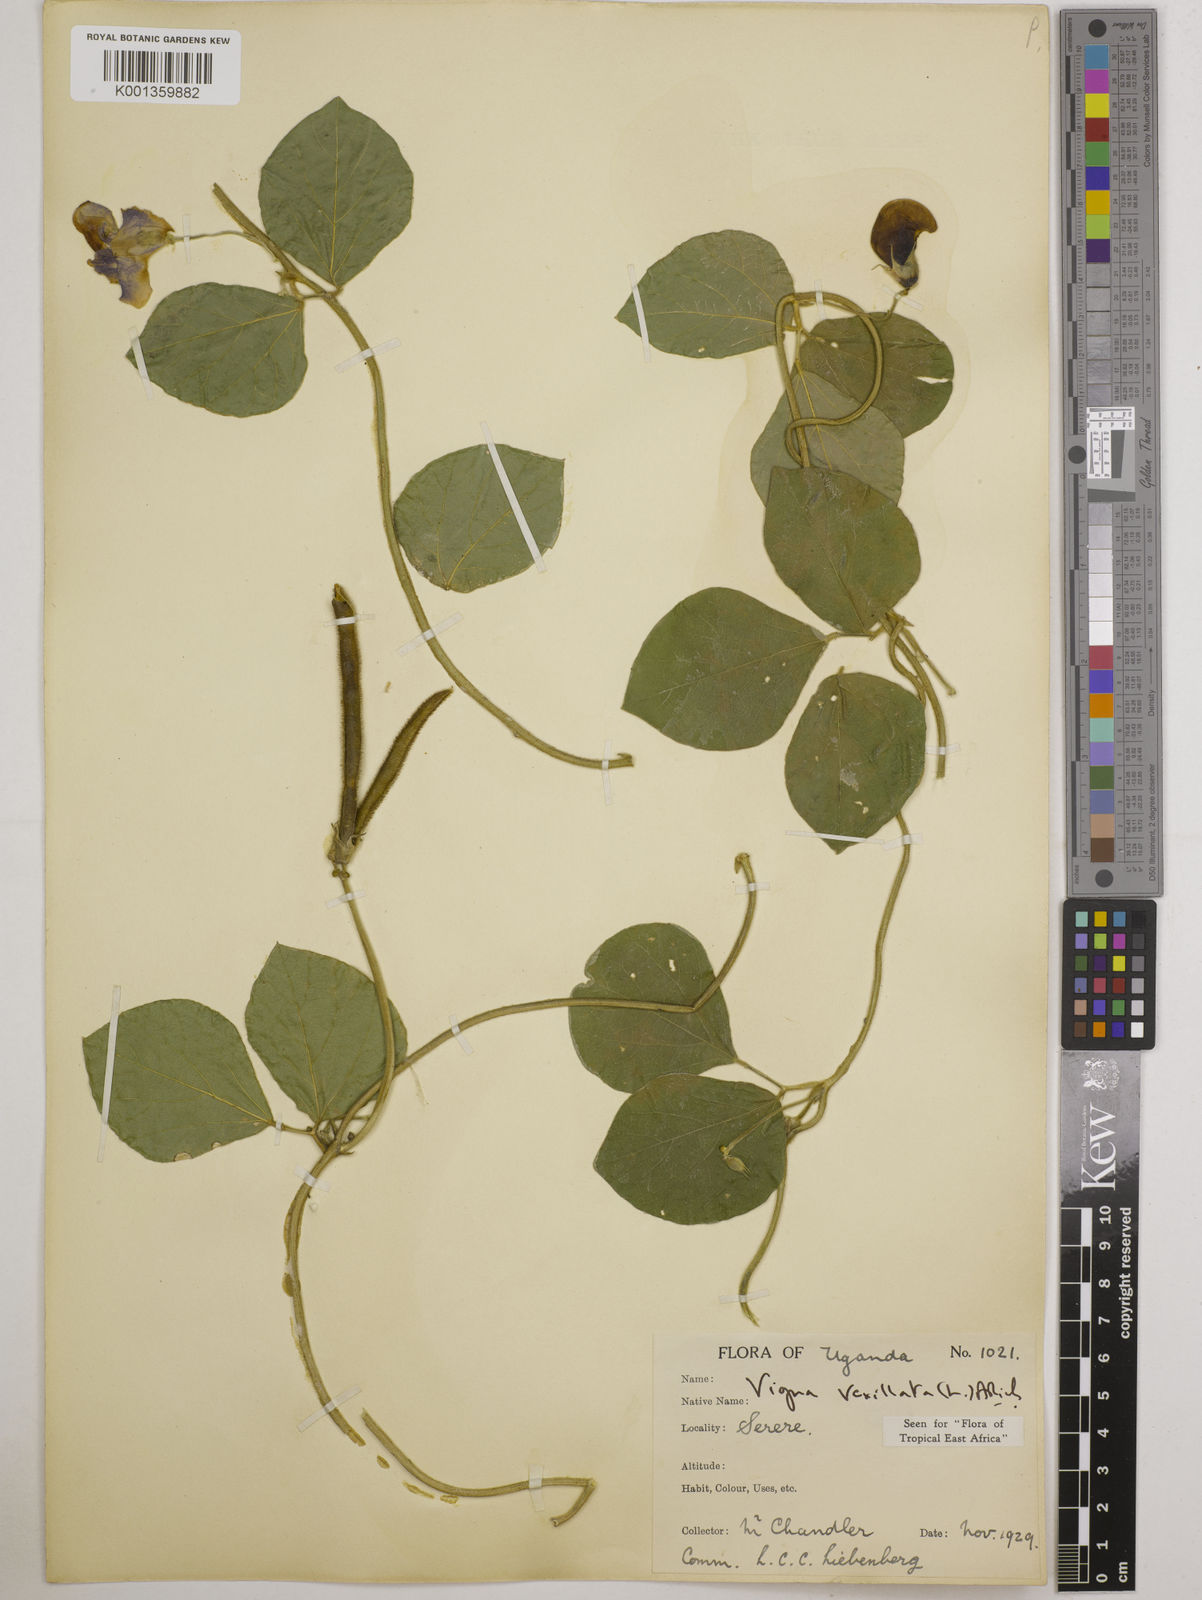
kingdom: Plantae
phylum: Tracheophyta
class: Magnoliopsida
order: Fabales
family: Fabaceae
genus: Vigna
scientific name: Vigna vexillata
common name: Zombi pea
